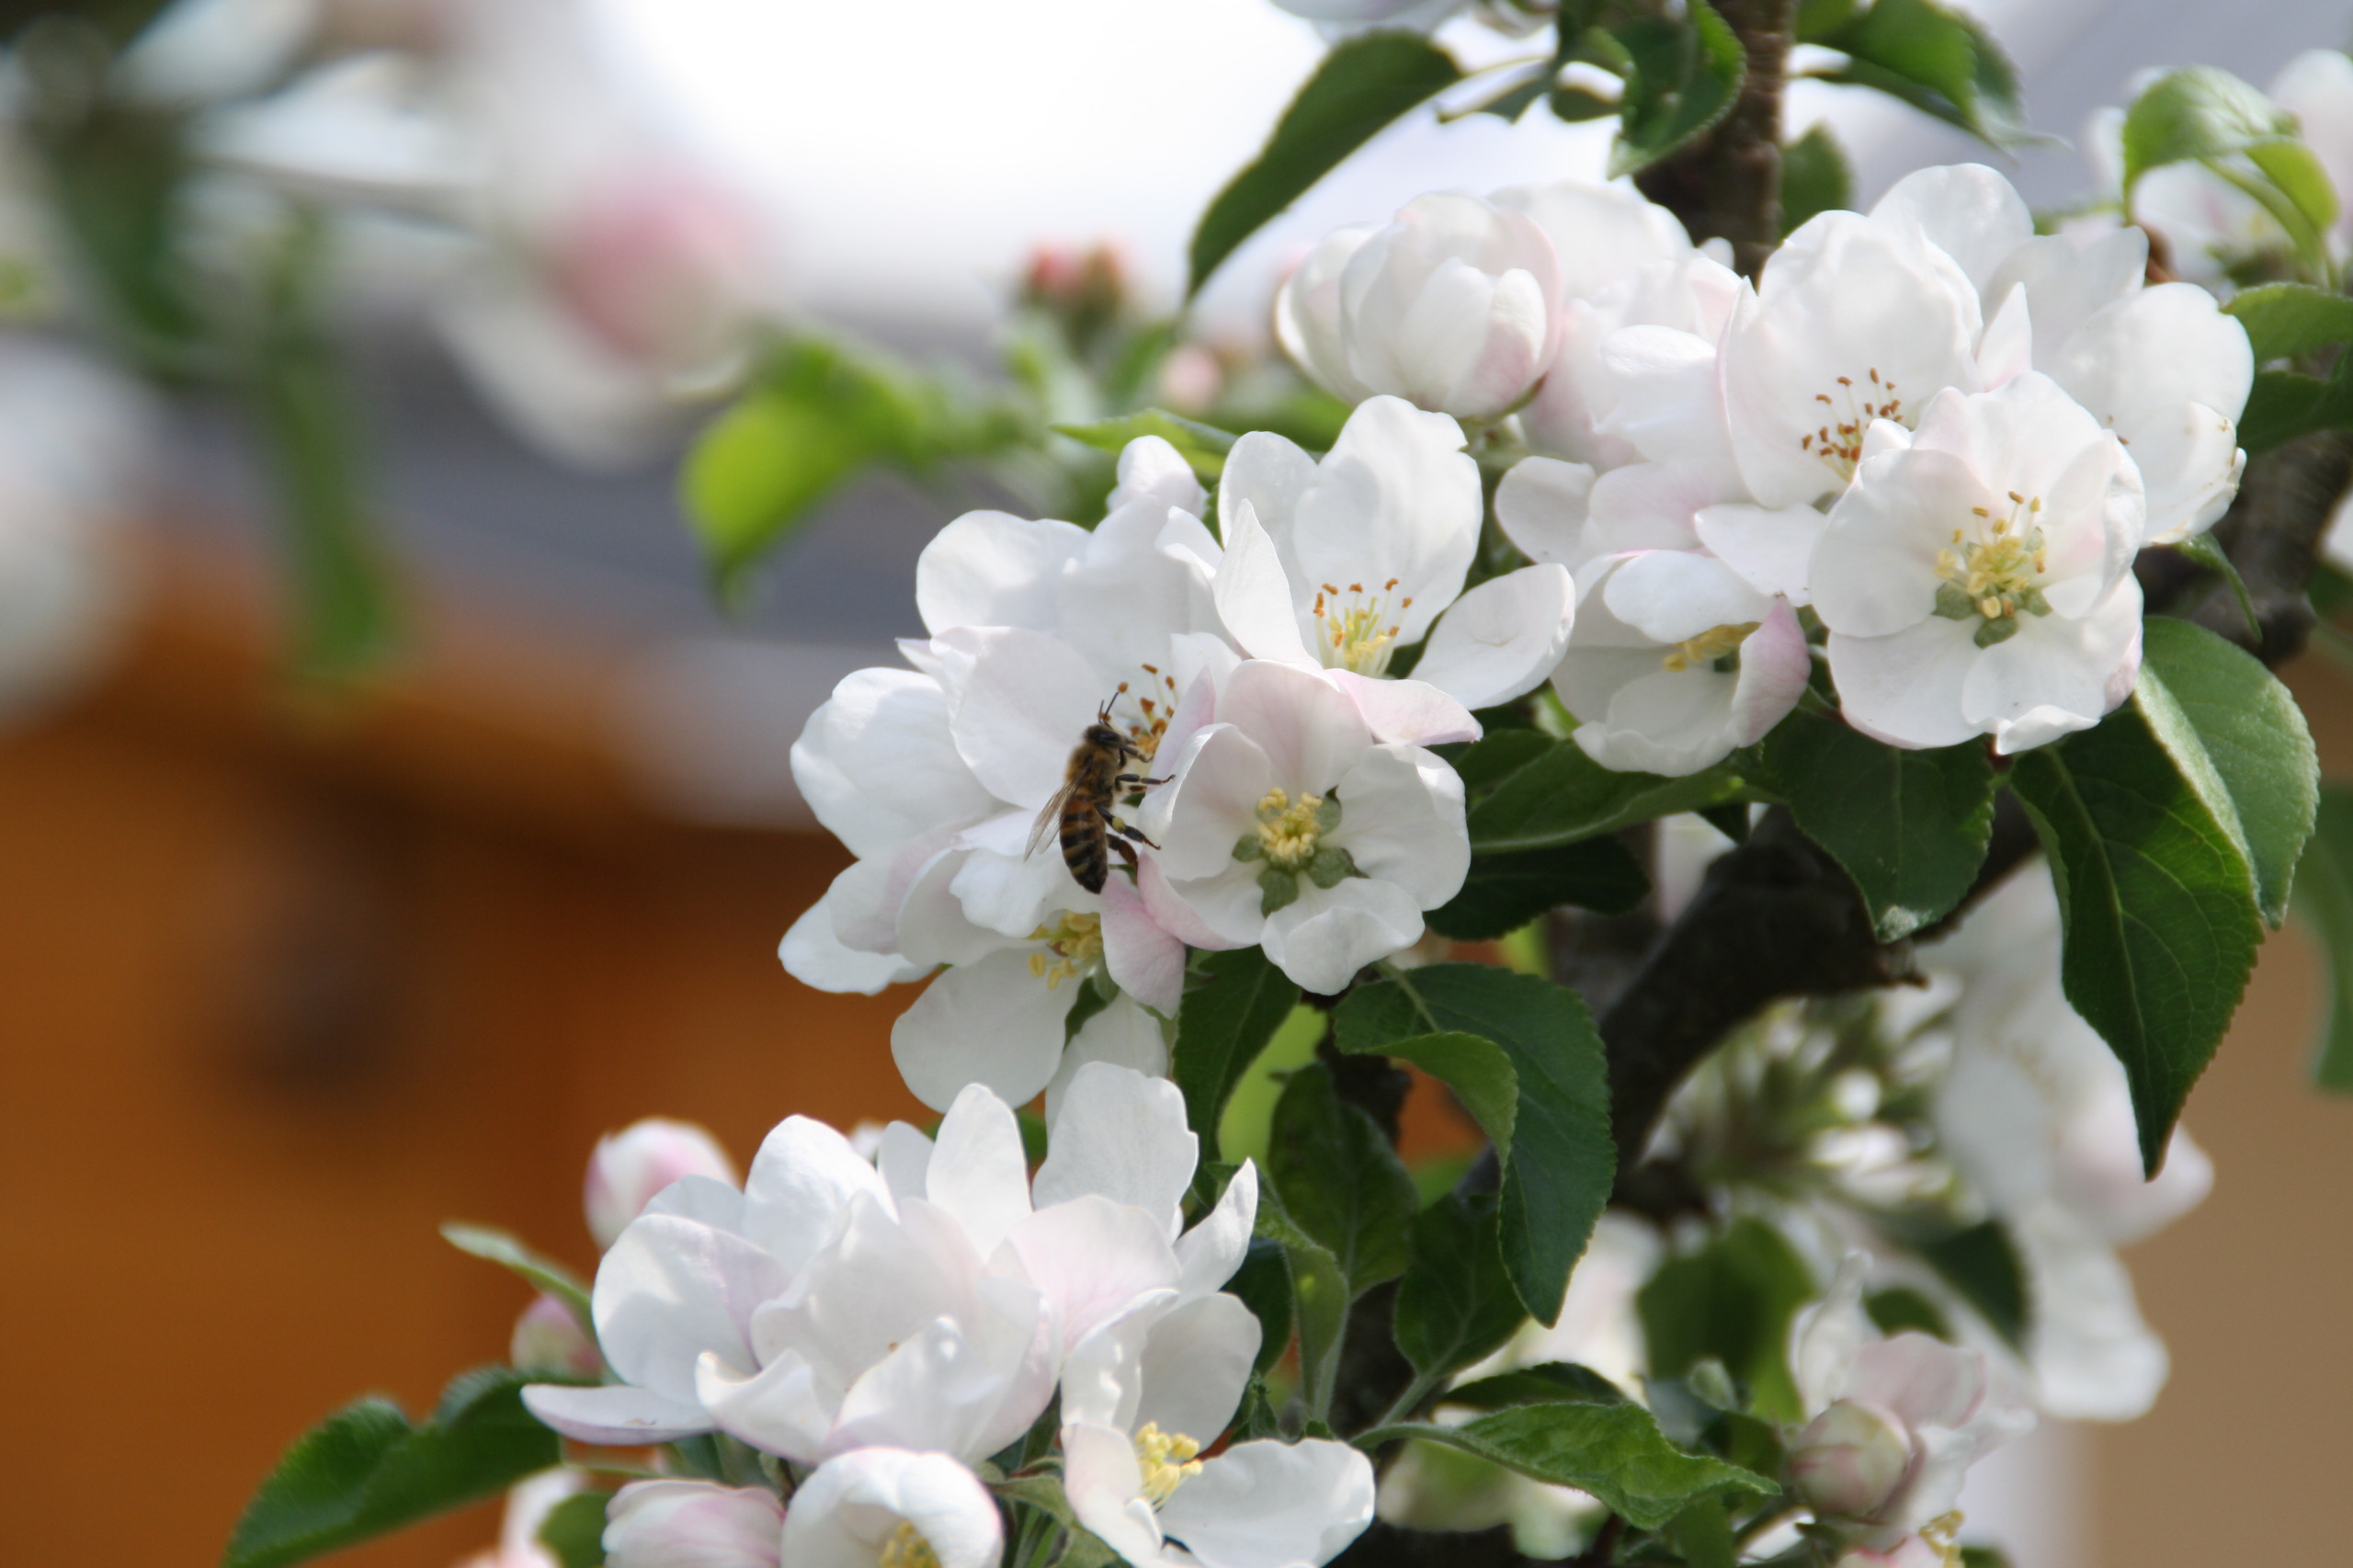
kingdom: Animalia
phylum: Arthropoda
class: Insecta
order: Hymenoptera
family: Apidae
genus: Apis
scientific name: Apis mellifera
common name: Honningbi
